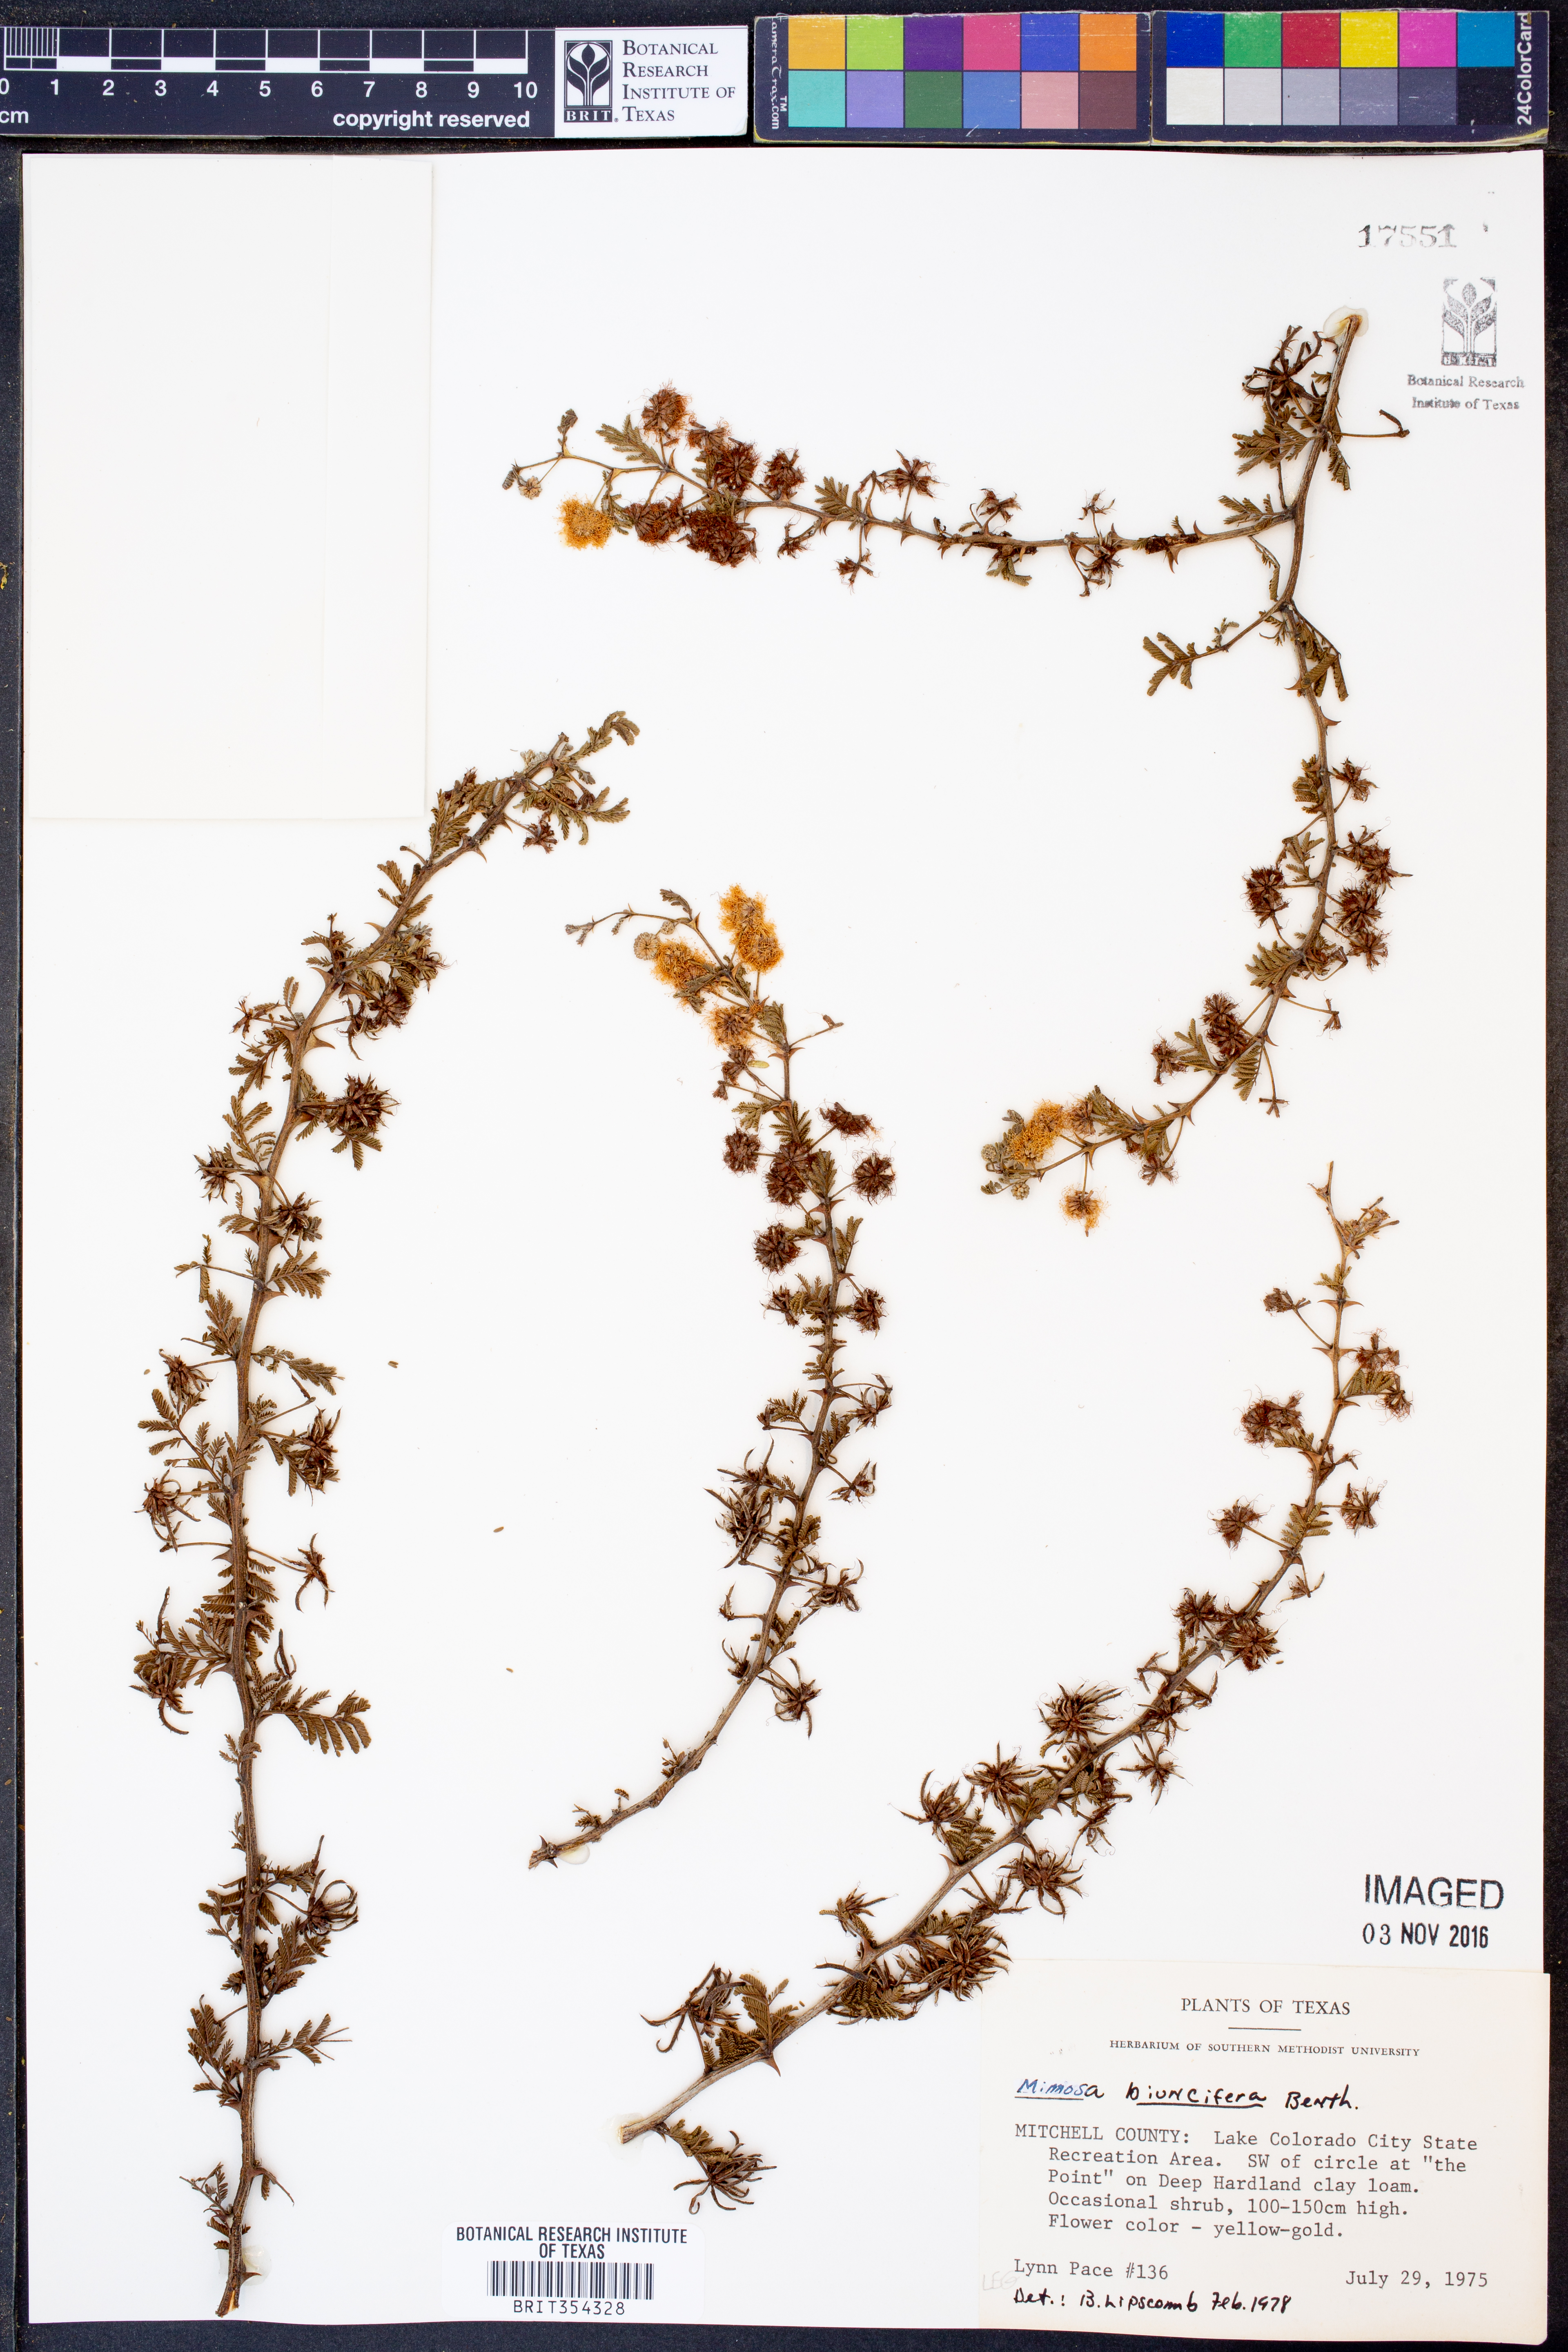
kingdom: Plantae
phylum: Tracheophyta
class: Magnoliopsida
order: Fabales
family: Fabaceae
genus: Mimosa
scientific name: Mimosa biuncifera
